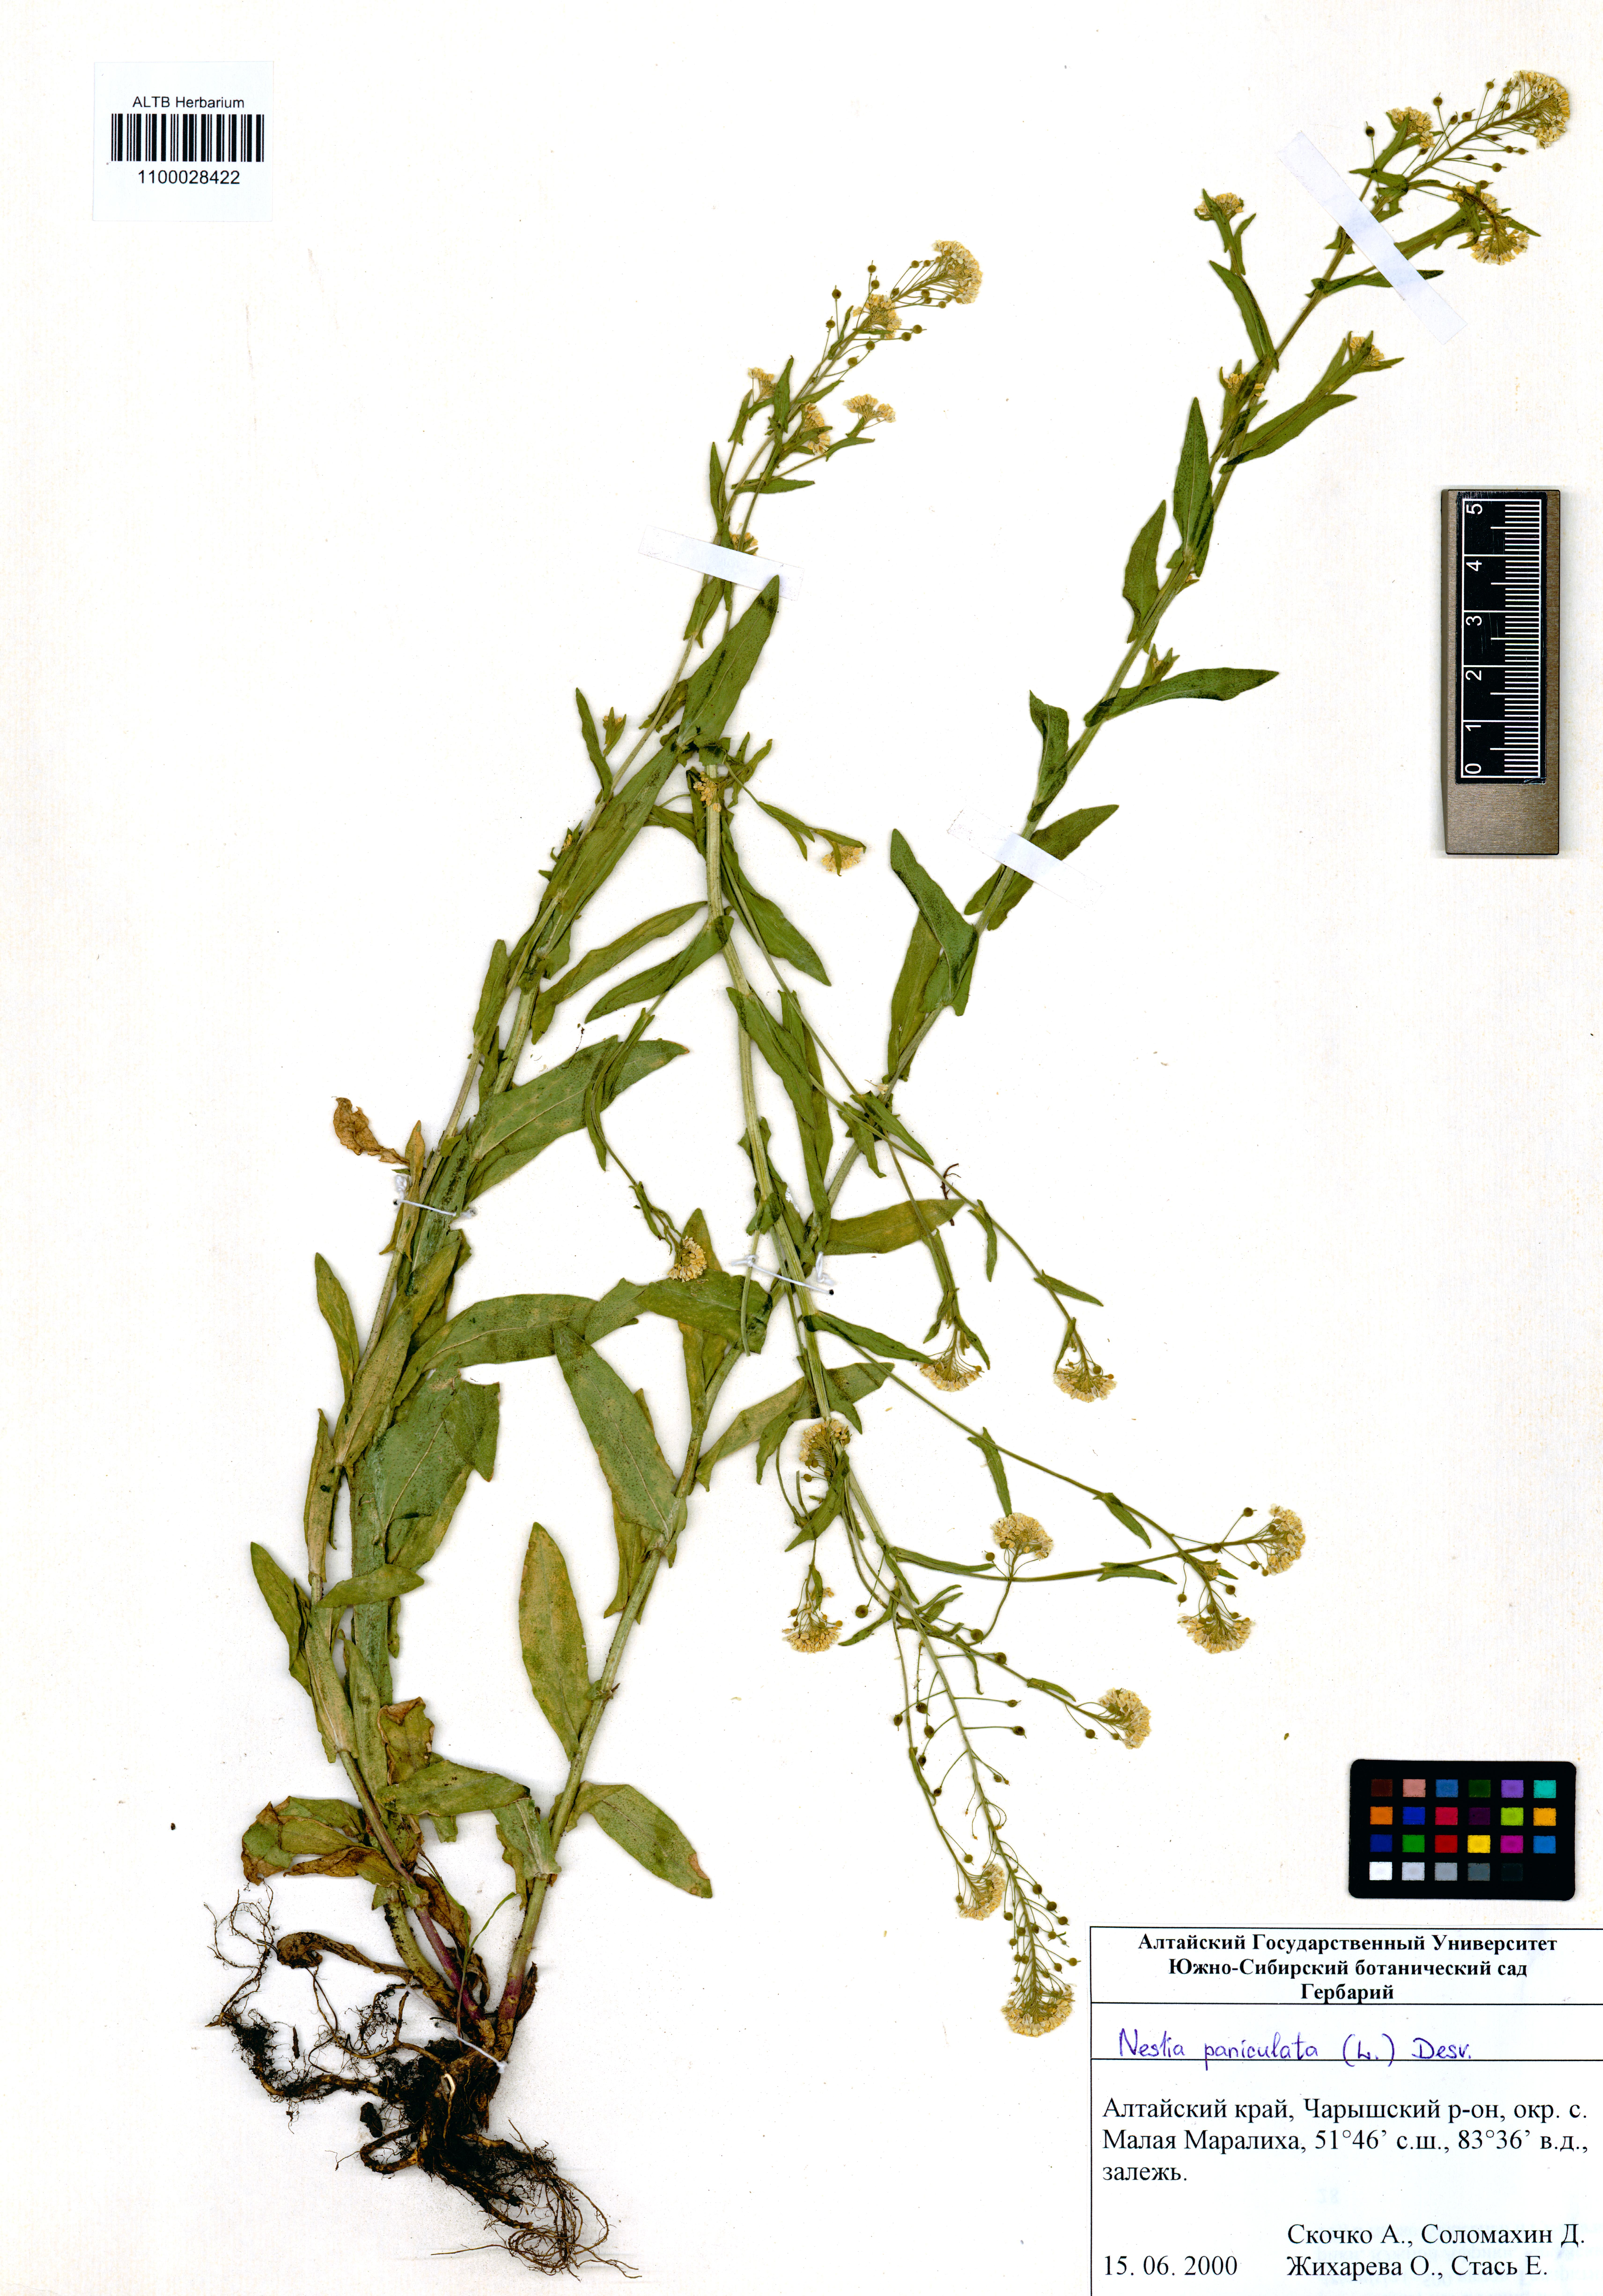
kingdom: Plantae
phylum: Tracheophyta
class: Magnoliopsida
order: Brassicales
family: Brassicaceae
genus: Neslia
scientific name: Neslia paniculata
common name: Ball mustard
